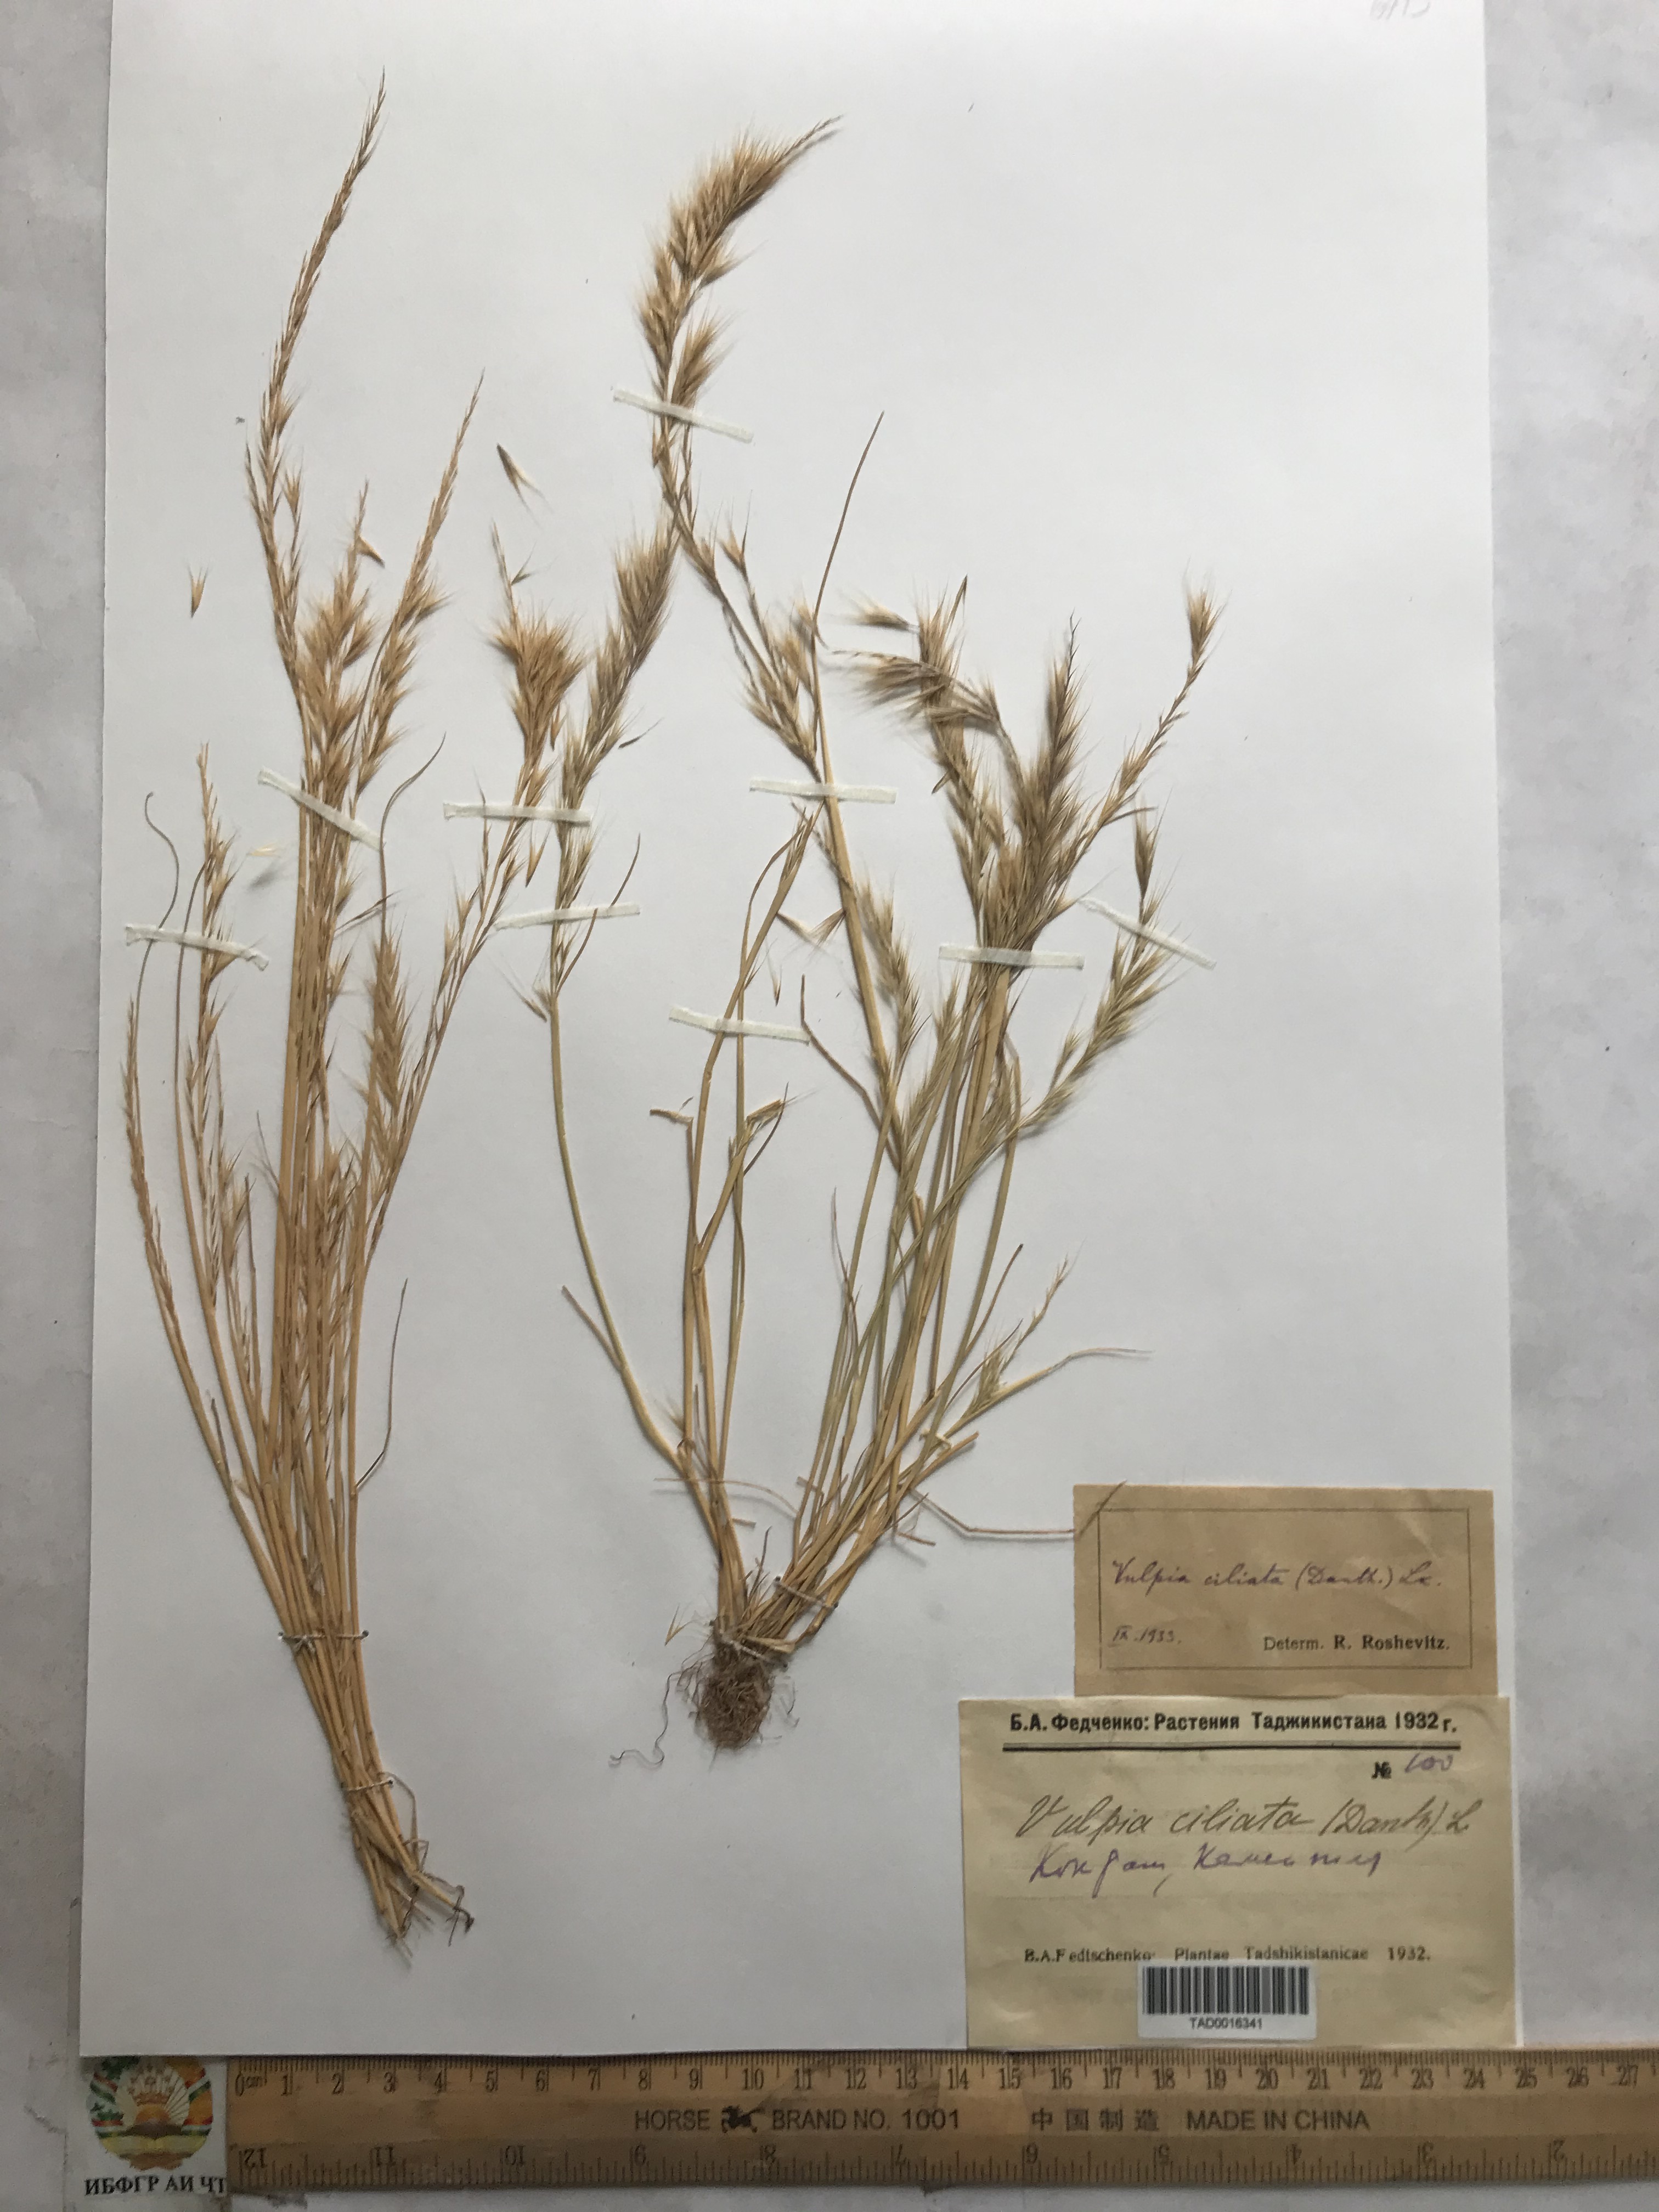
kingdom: Plantae
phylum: Tracheophyta
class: Liliopsida
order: Poales
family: Poaceae
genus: Festuca
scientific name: Festuca ambigua
